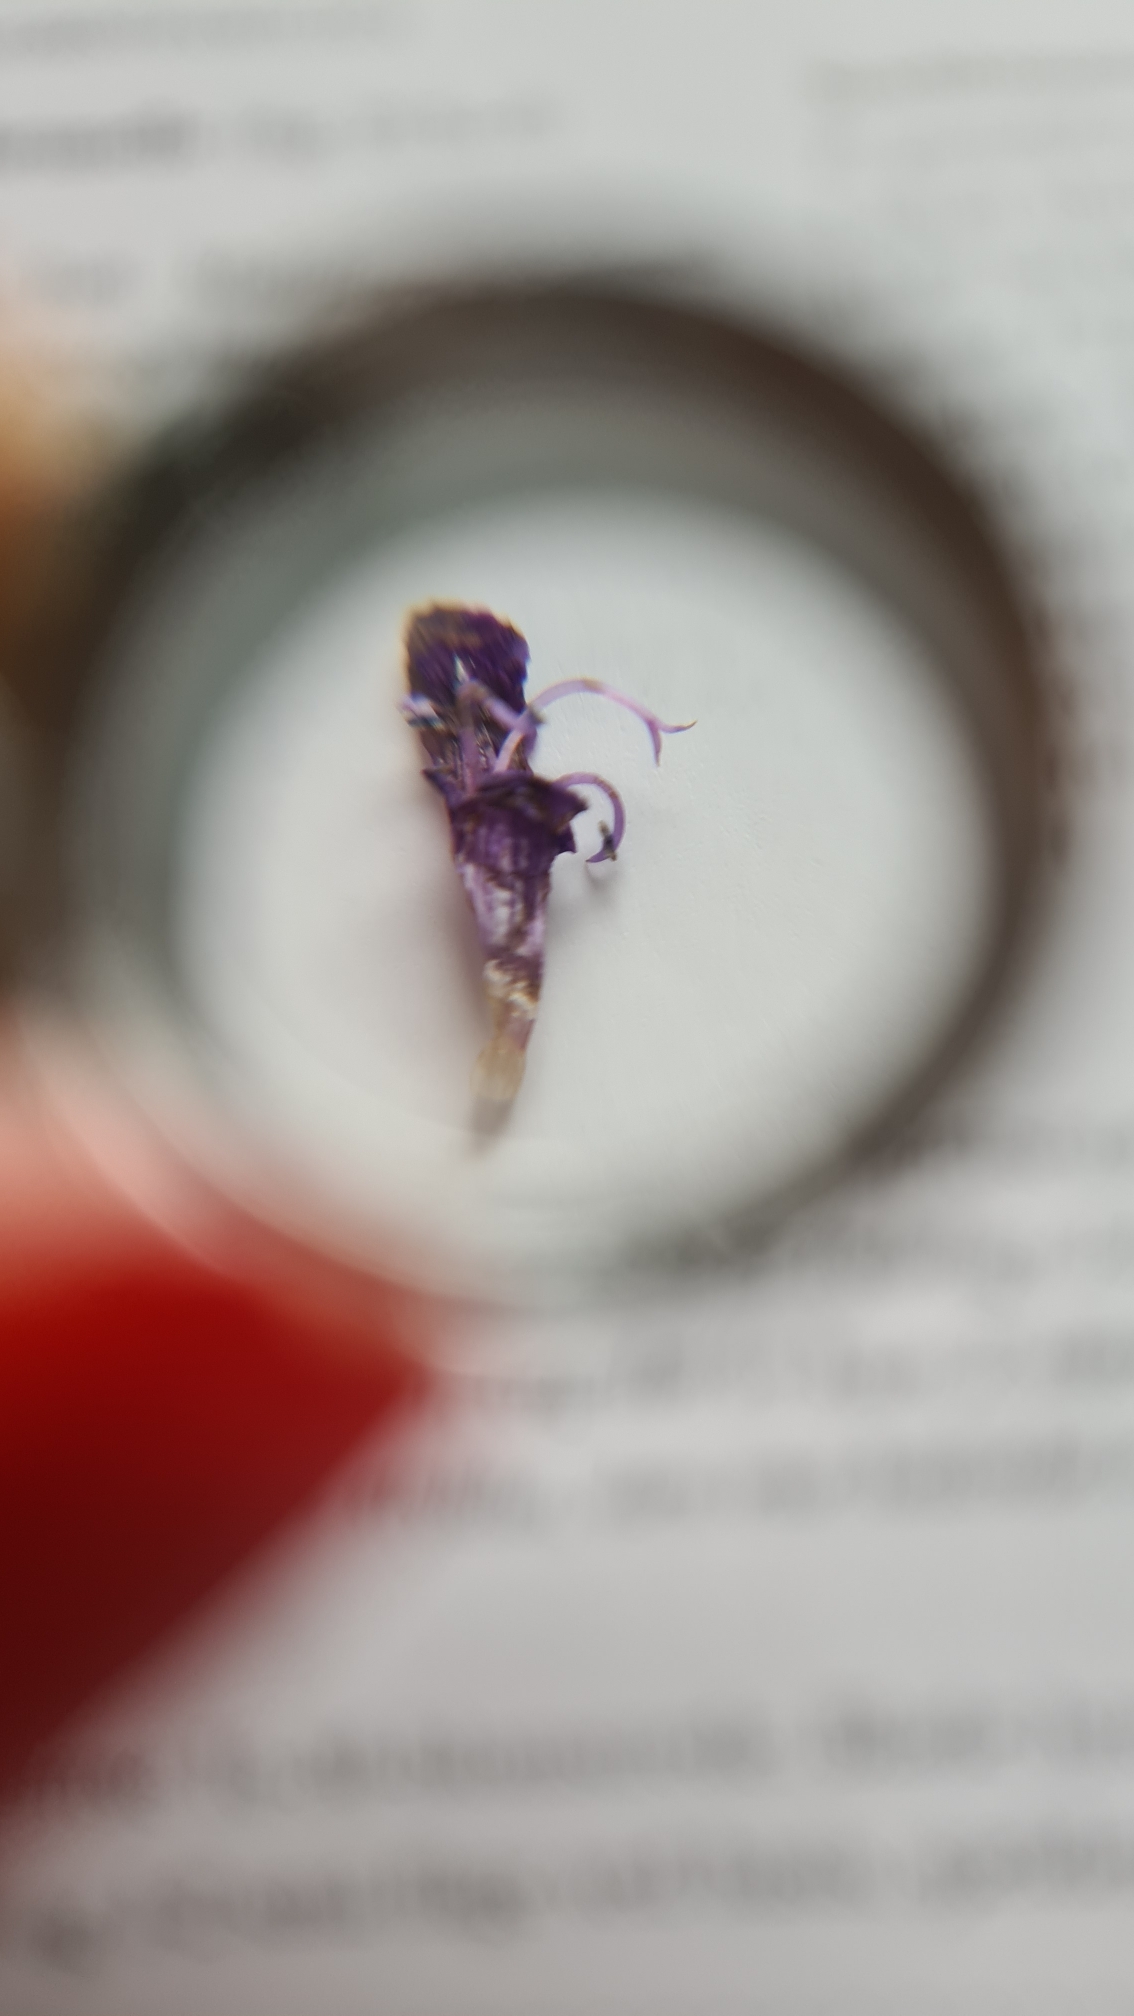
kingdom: Plantae
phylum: Tracheophyta
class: Magnoliopsida
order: Lamiales
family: Lamiaceae
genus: Prunella
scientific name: Prunella vulgaris
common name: Almindelig brunelle
